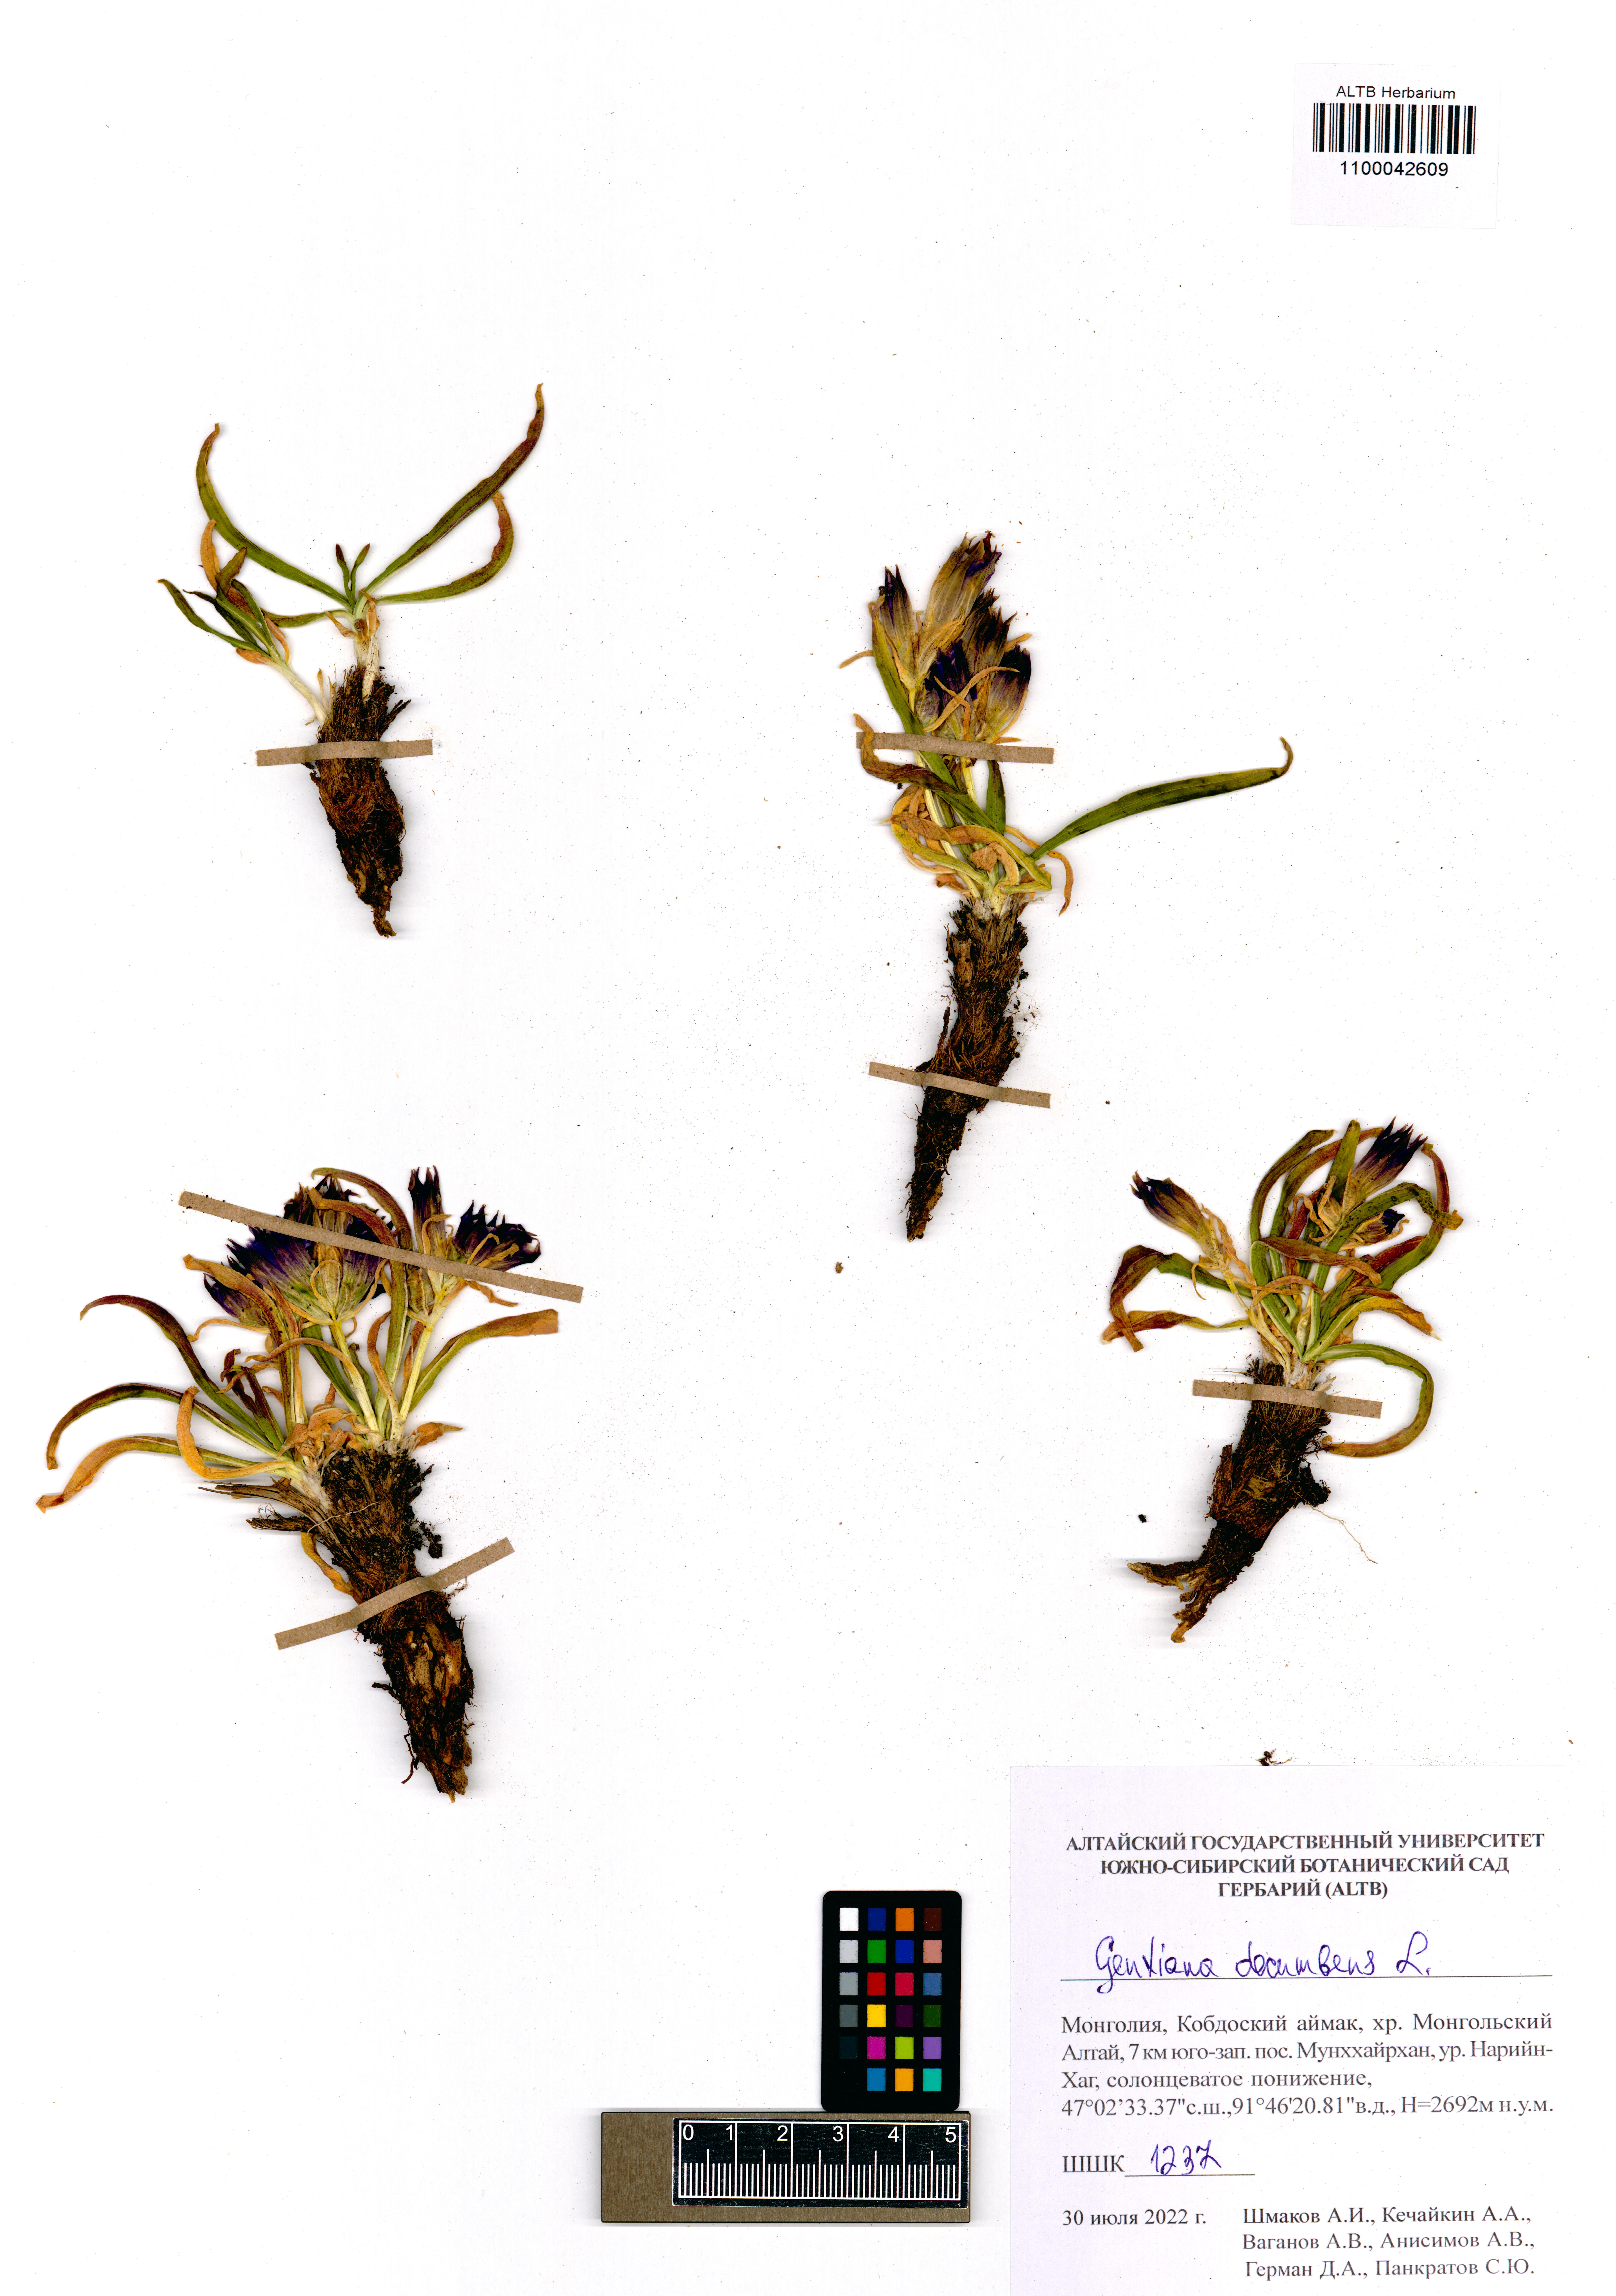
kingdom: Plantae
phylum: Tracheophyta
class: Magnoliopsida
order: Gentianales
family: Gentianaceae
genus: Gentiana
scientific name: Gentiana decumbens
